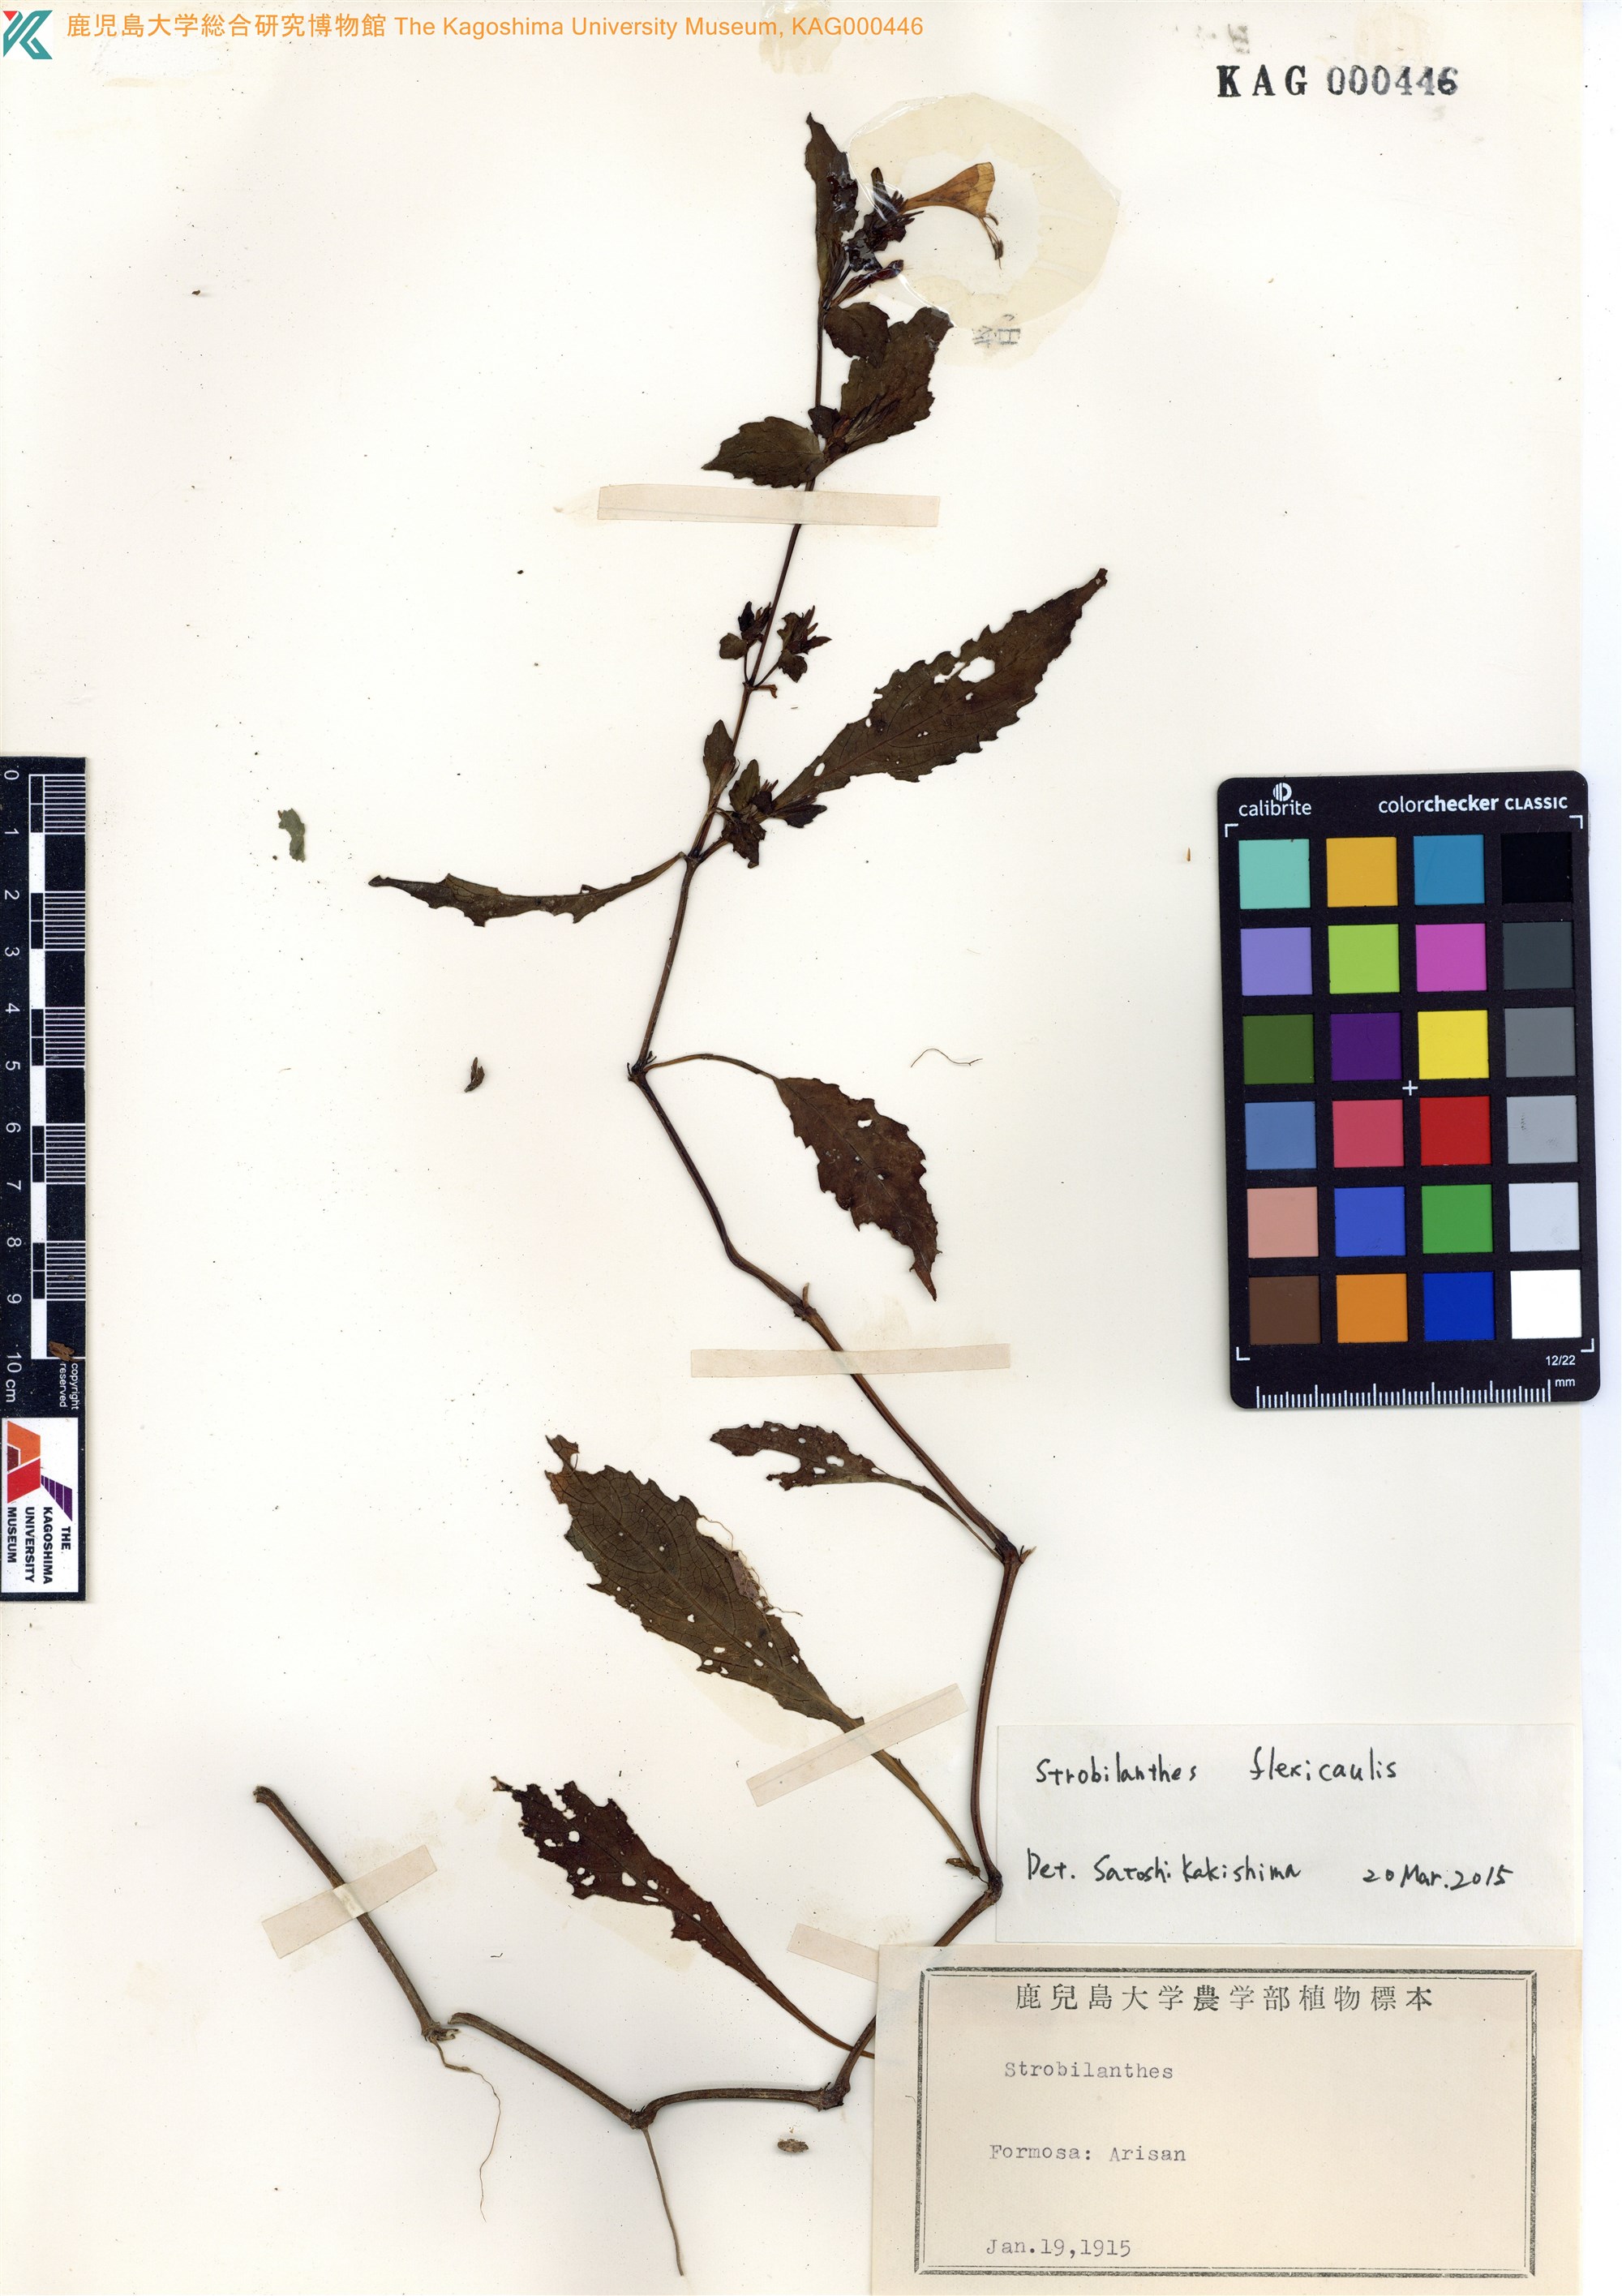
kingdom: Plantae
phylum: Tracheophyta
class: Magnoliopsida
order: Lamiales
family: Acanthaceae
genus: Strobilanthes
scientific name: Strobilanthes
